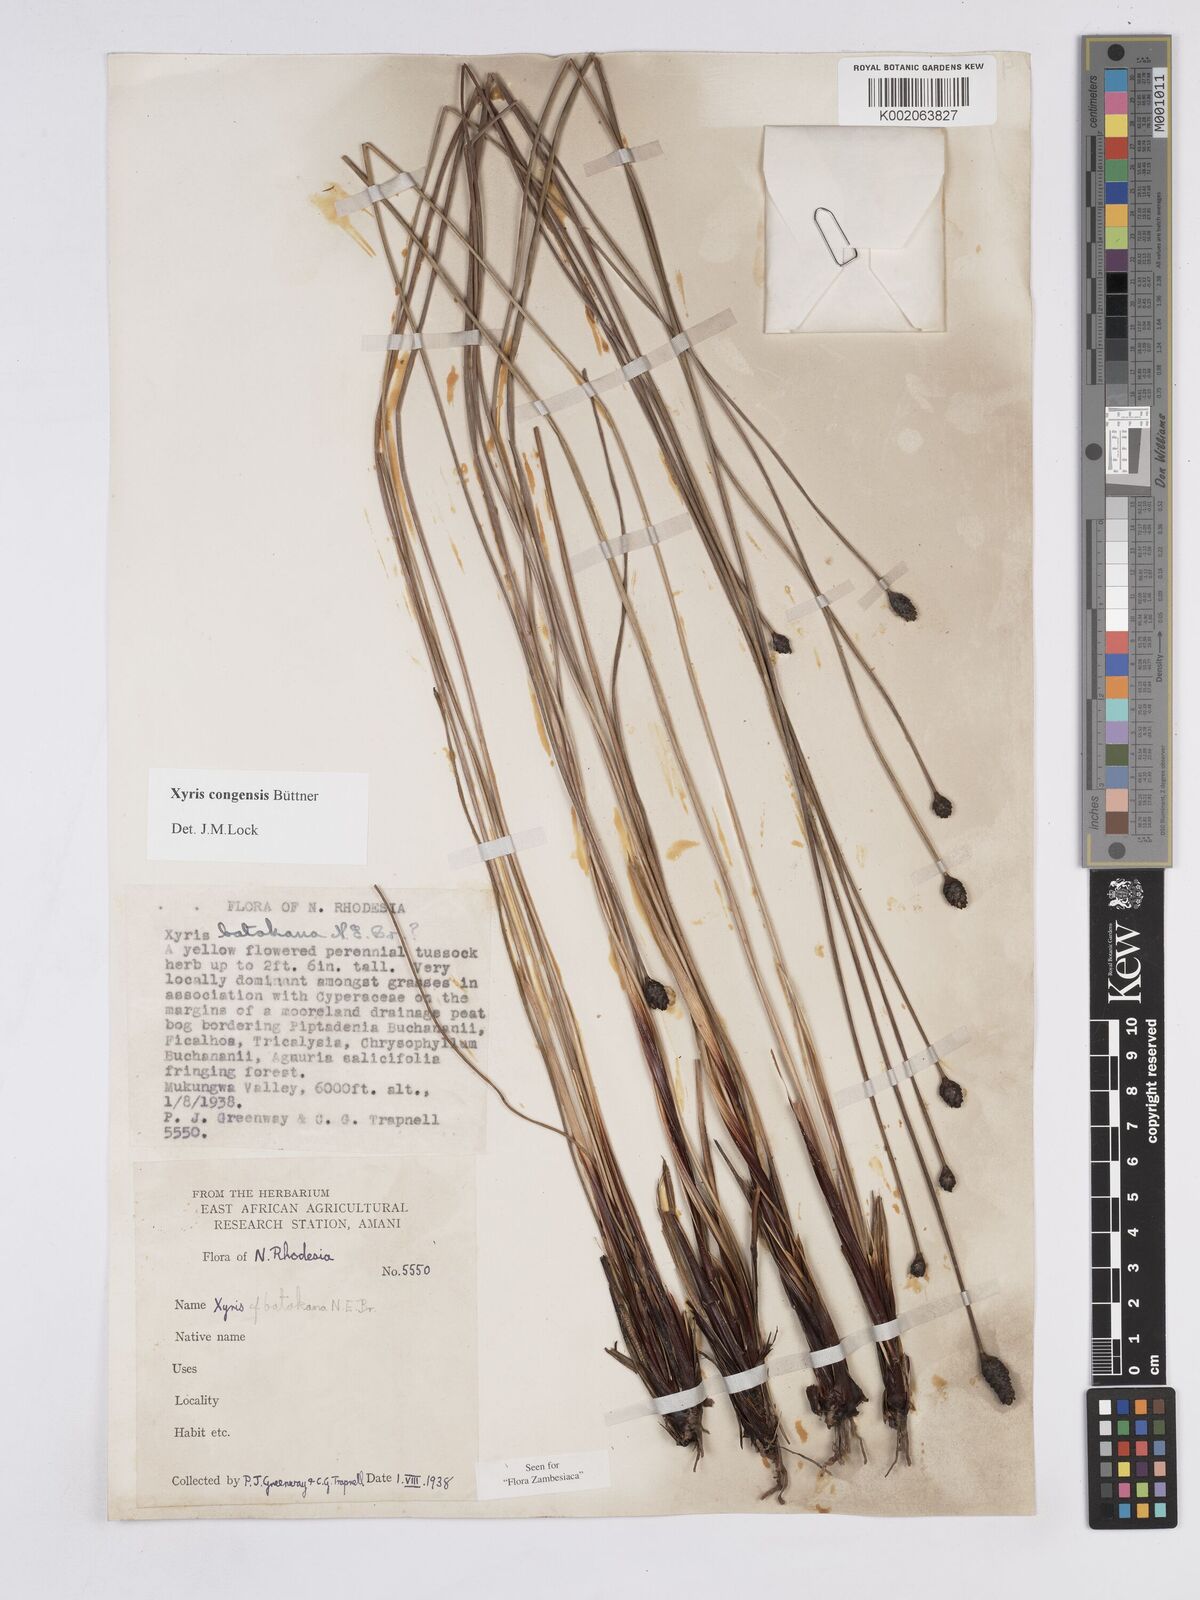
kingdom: Plantae
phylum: Tracheophyta
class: Liliopsida
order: Poales
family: Xyridaceae
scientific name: Xyridaceae
